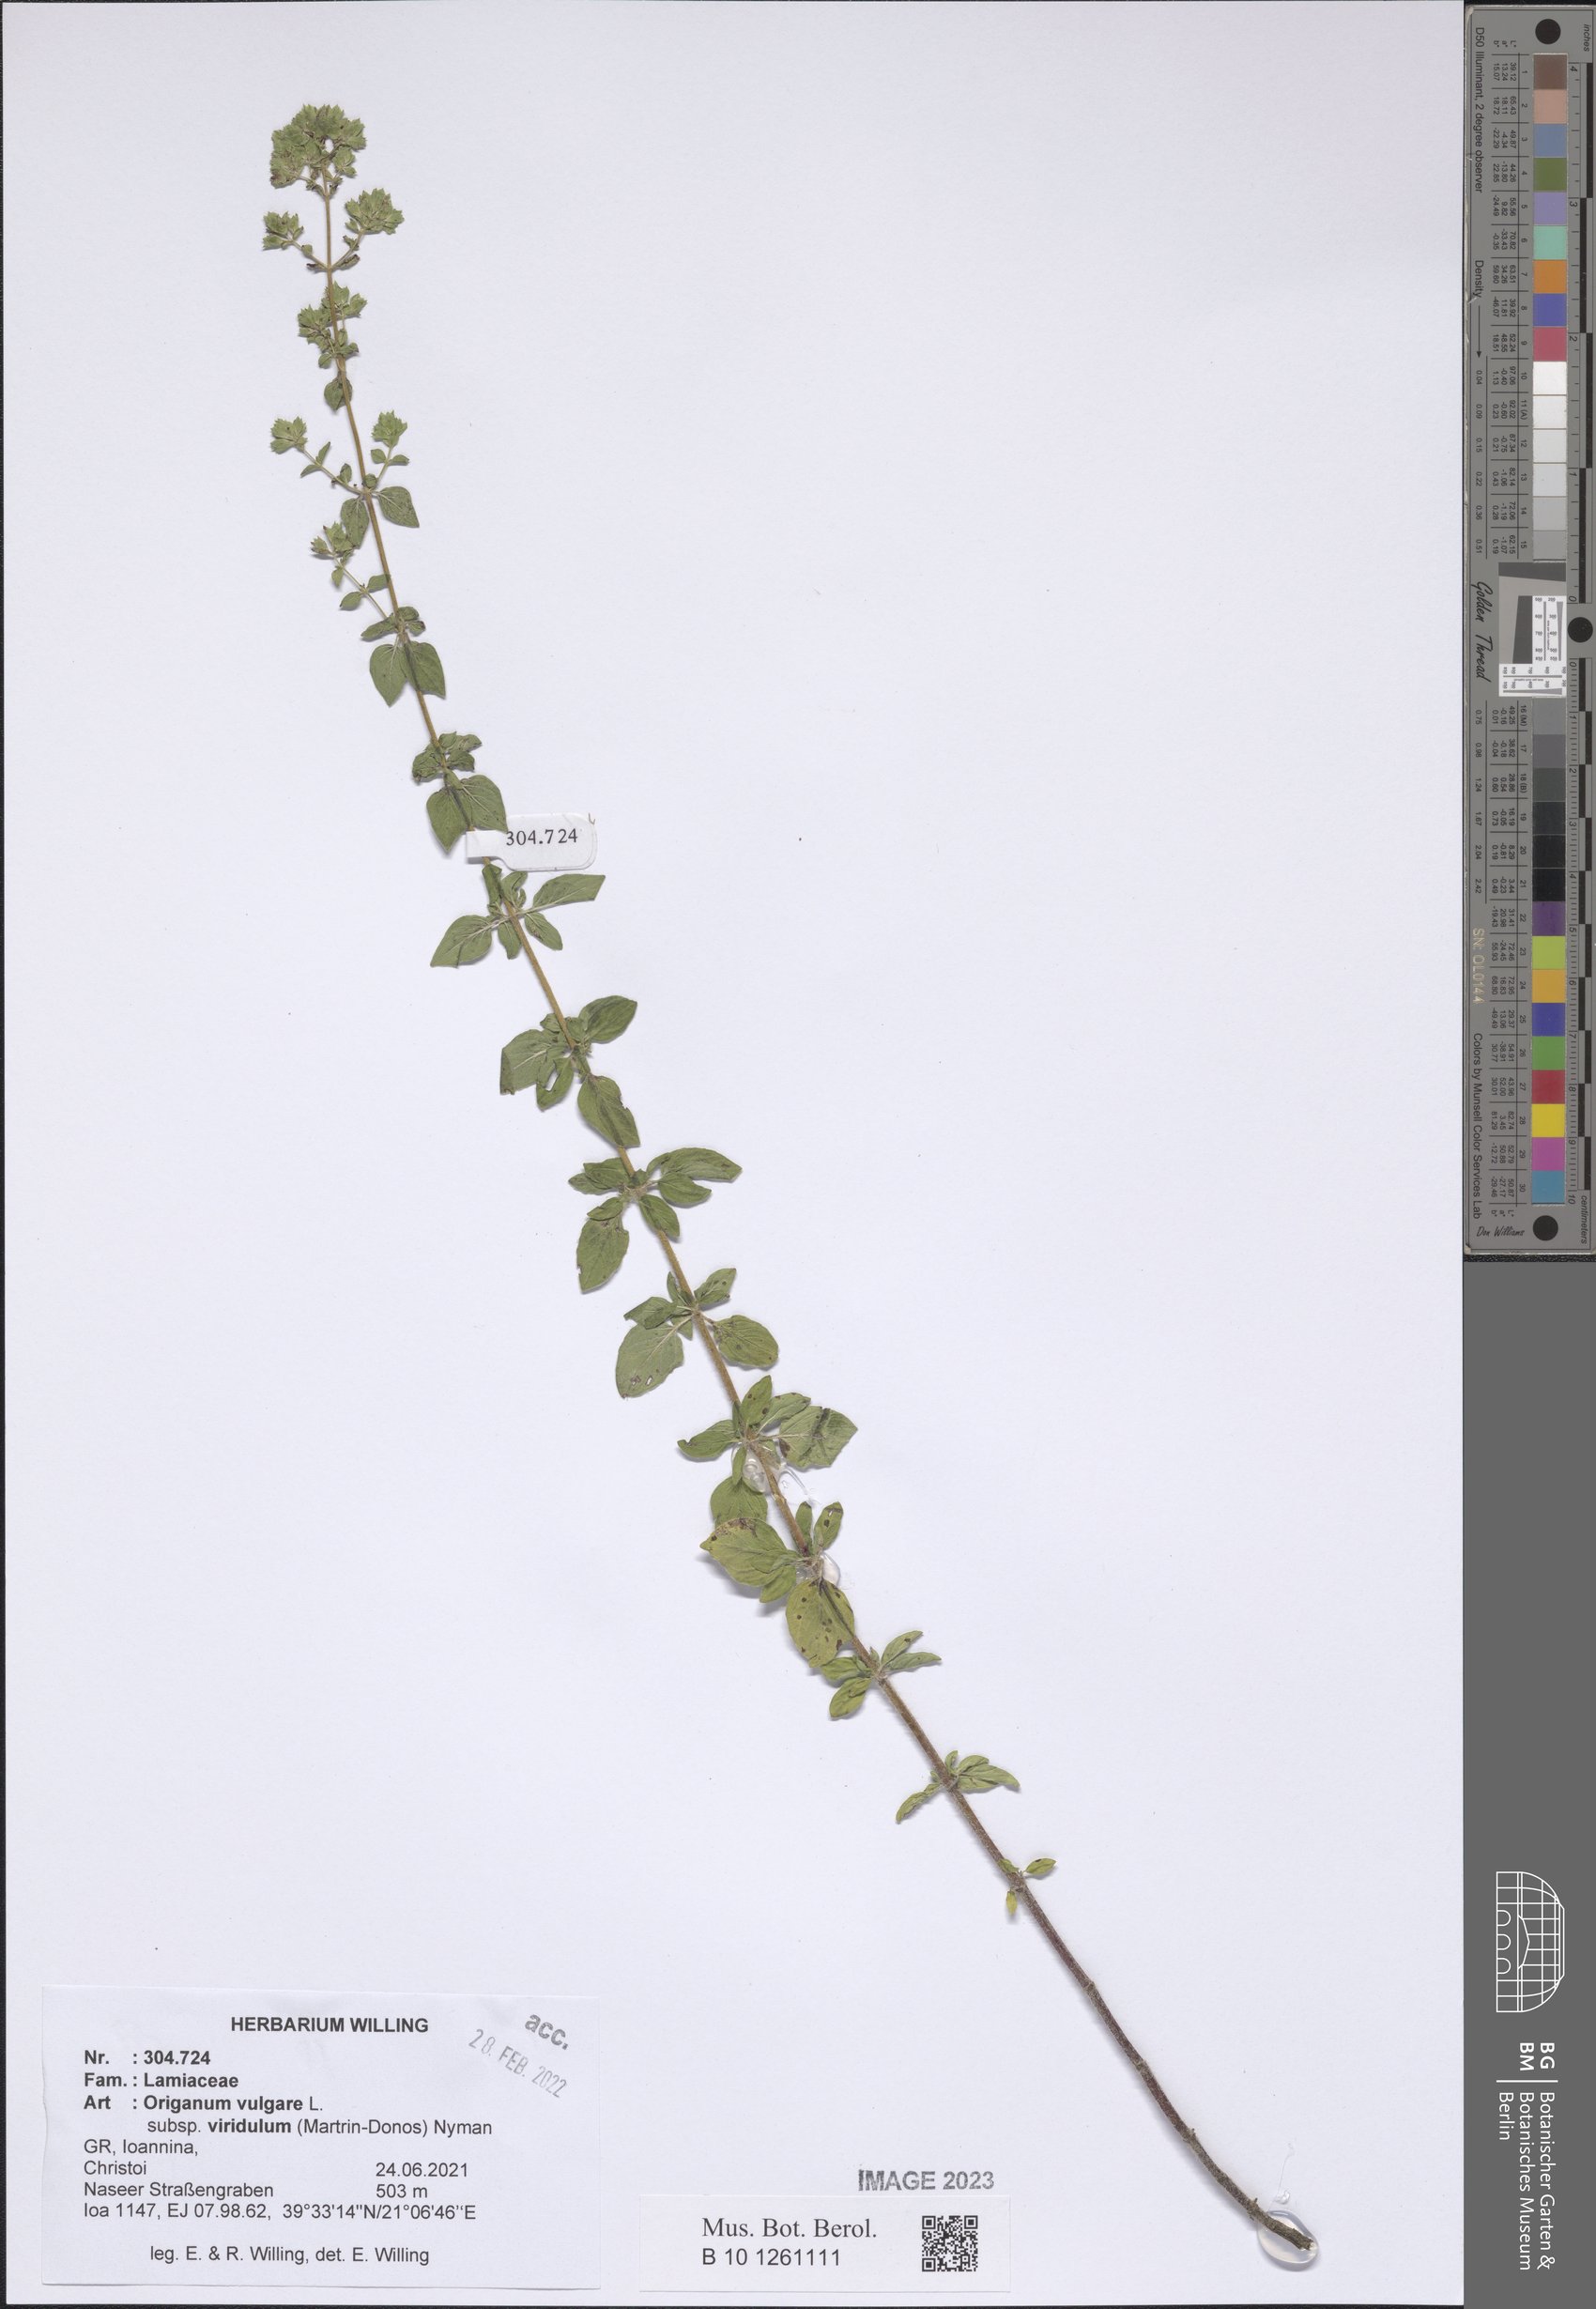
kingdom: Plantae
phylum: Tracheophyta
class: Magnoliopsida
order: Lamiales
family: Lamiaceae
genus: Origanum
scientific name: Origanum vulgare
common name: Wild marjoram
